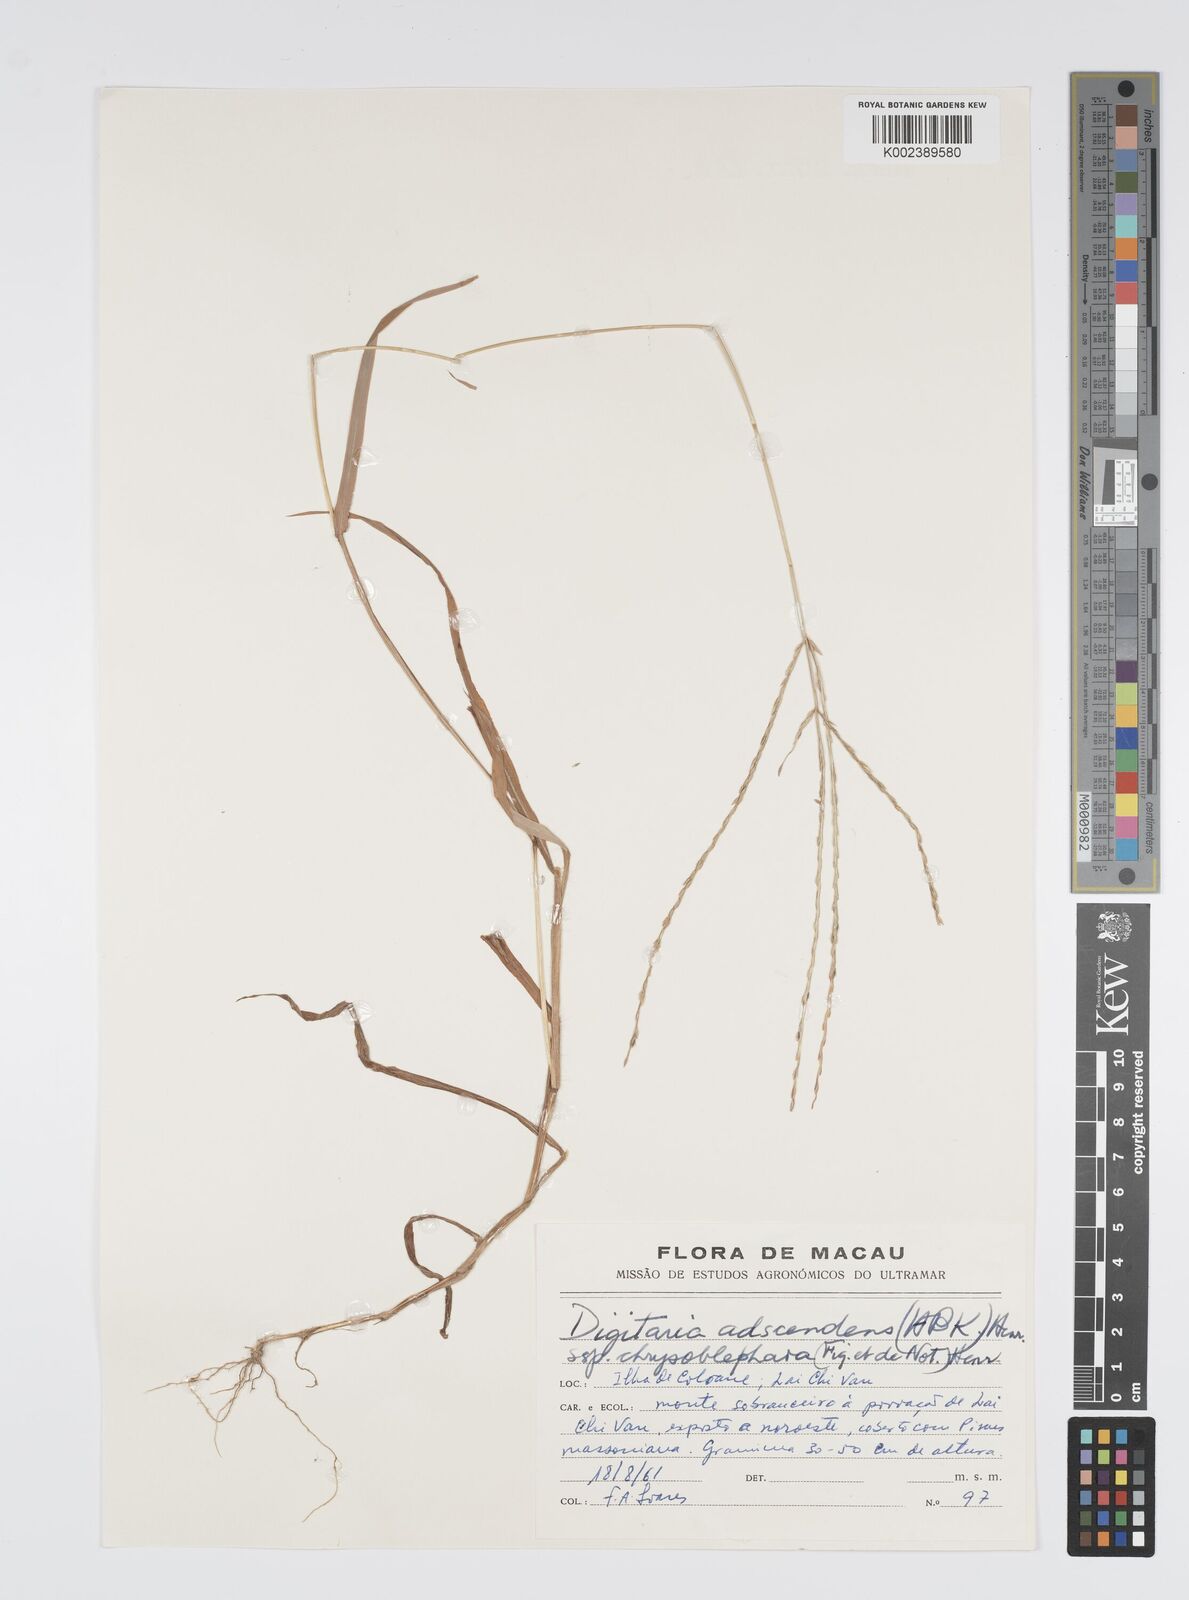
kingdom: Plantae
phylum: Tracheophyta
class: Liliopsida
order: Poales
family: Poaceae
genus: Digitaria
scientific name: Digitaria ciliaris
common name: Tropical finger-grass
